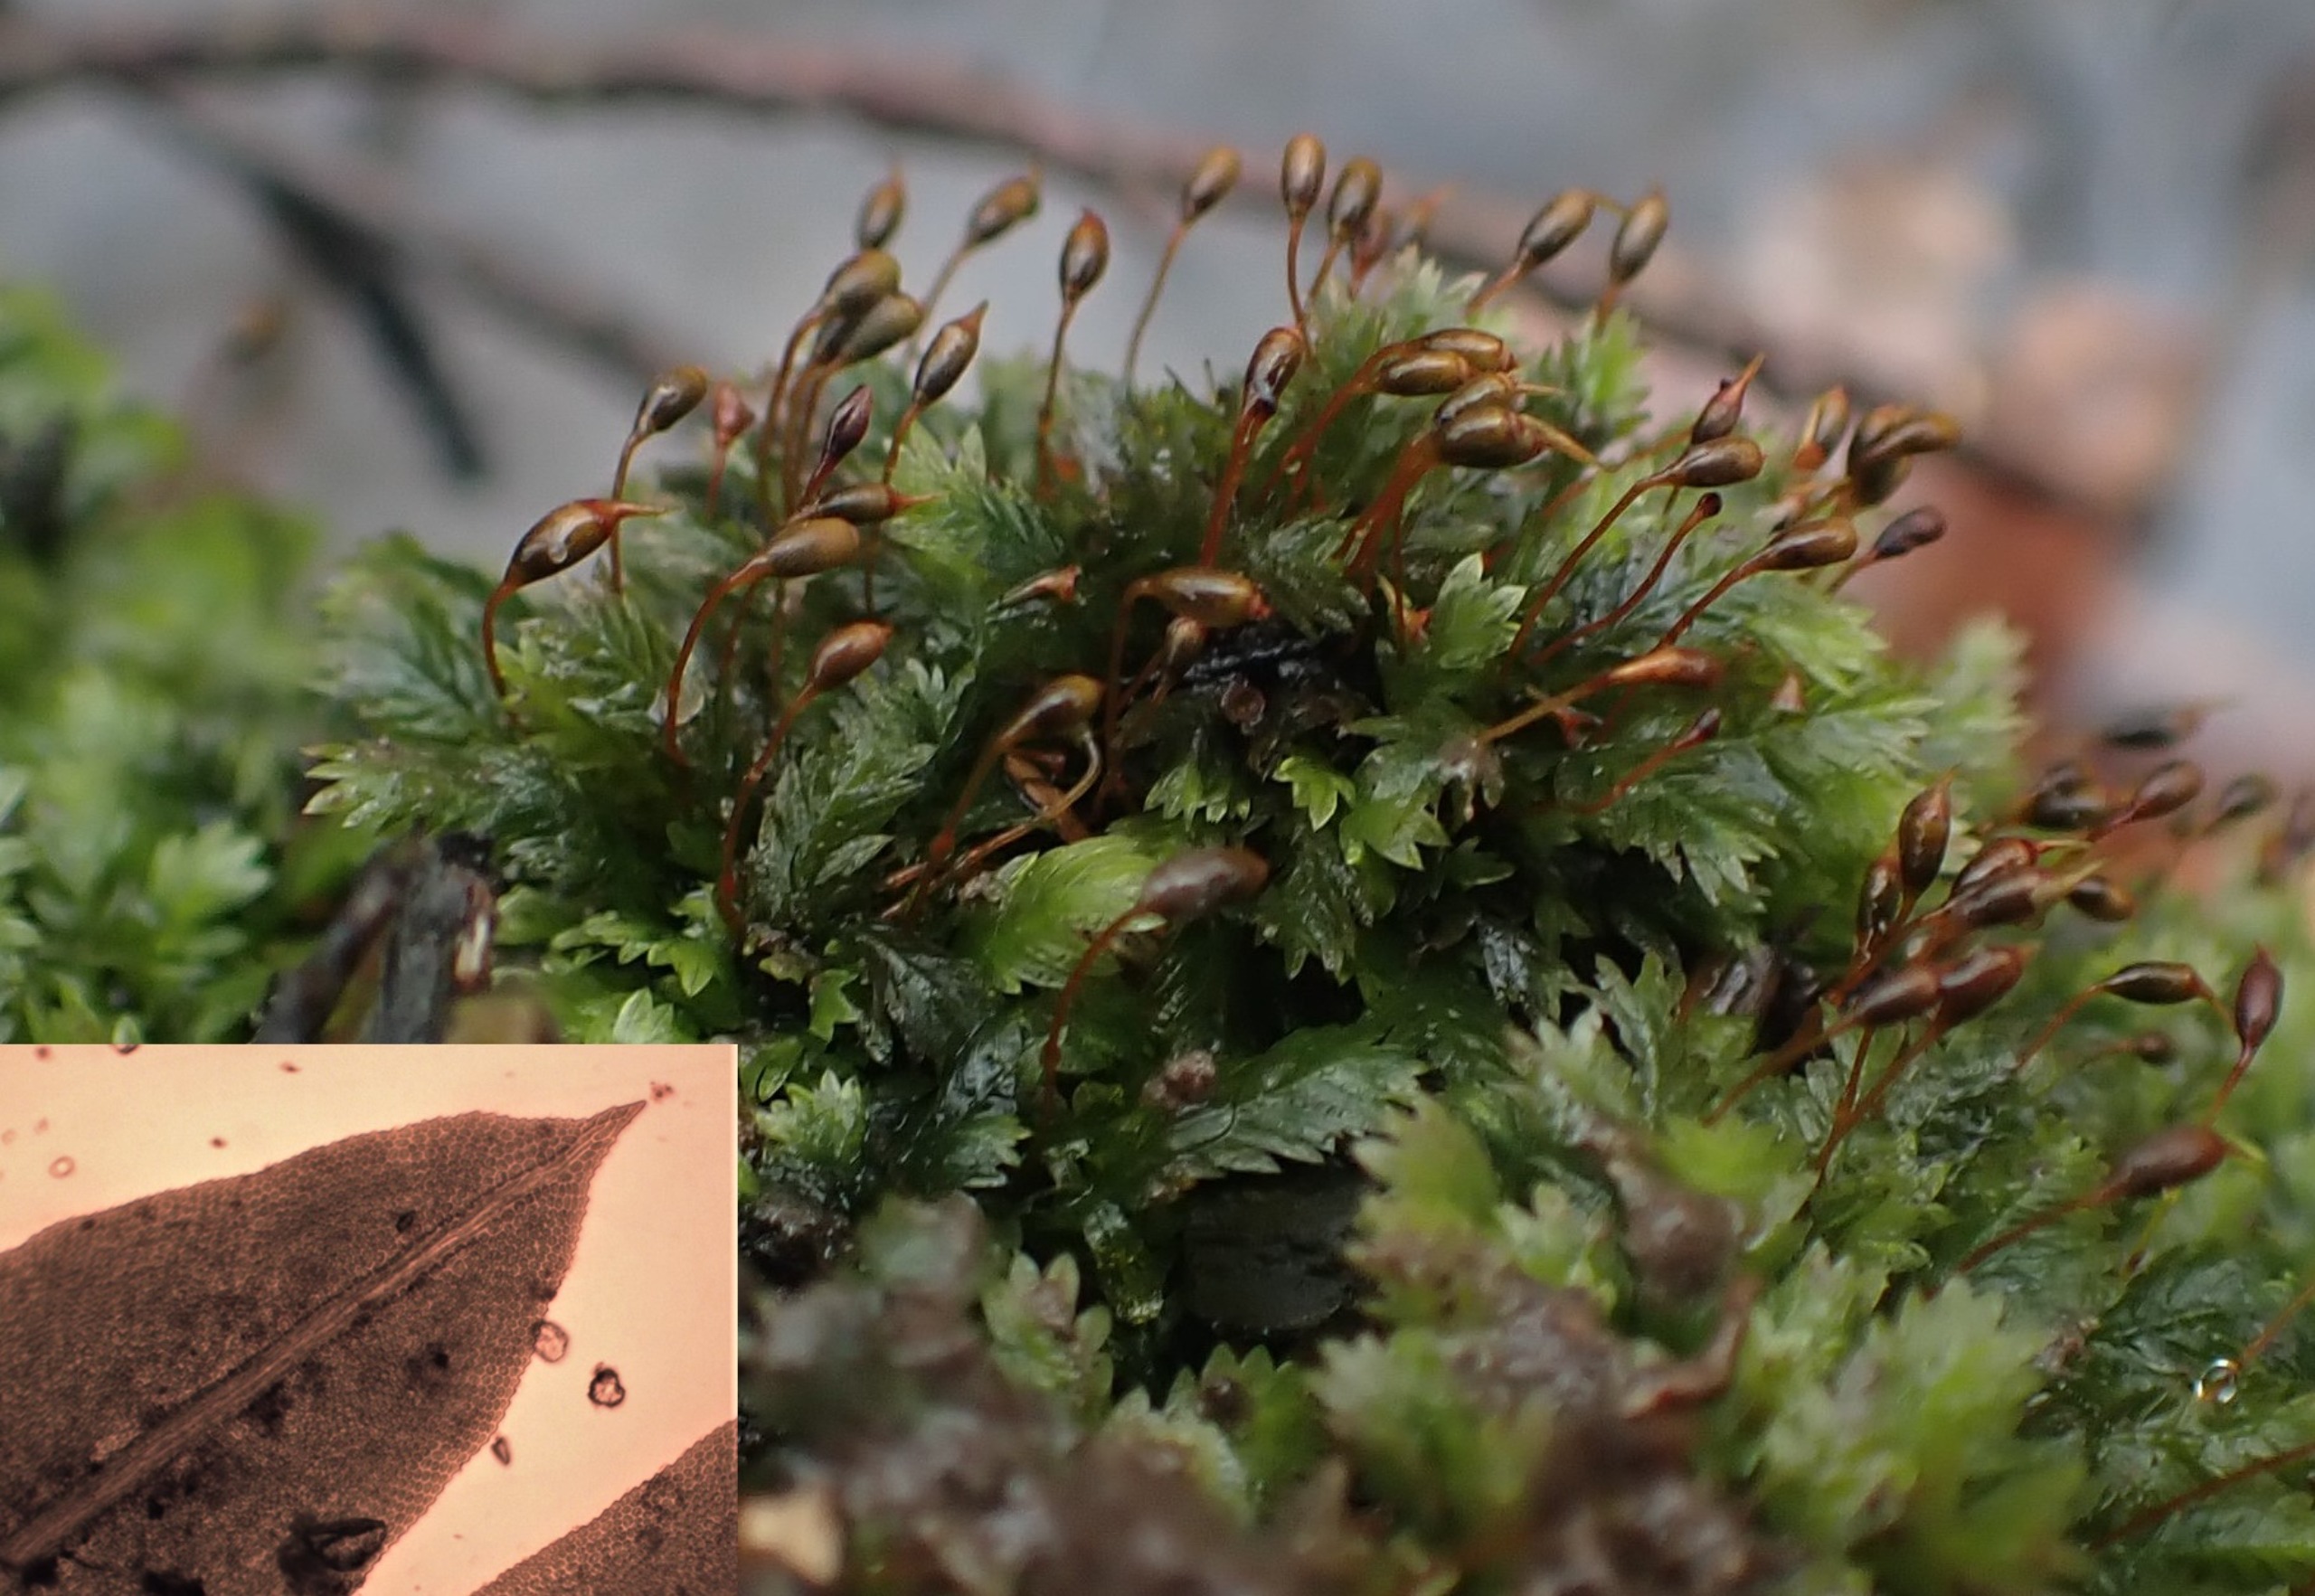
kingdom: Plantae
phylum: Bryophyta
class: Bryopsida
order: Dicranales
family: Fissidentaceae
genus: Fissidens
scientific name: Fissidens taxifolius
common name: Taksbladet rademos
